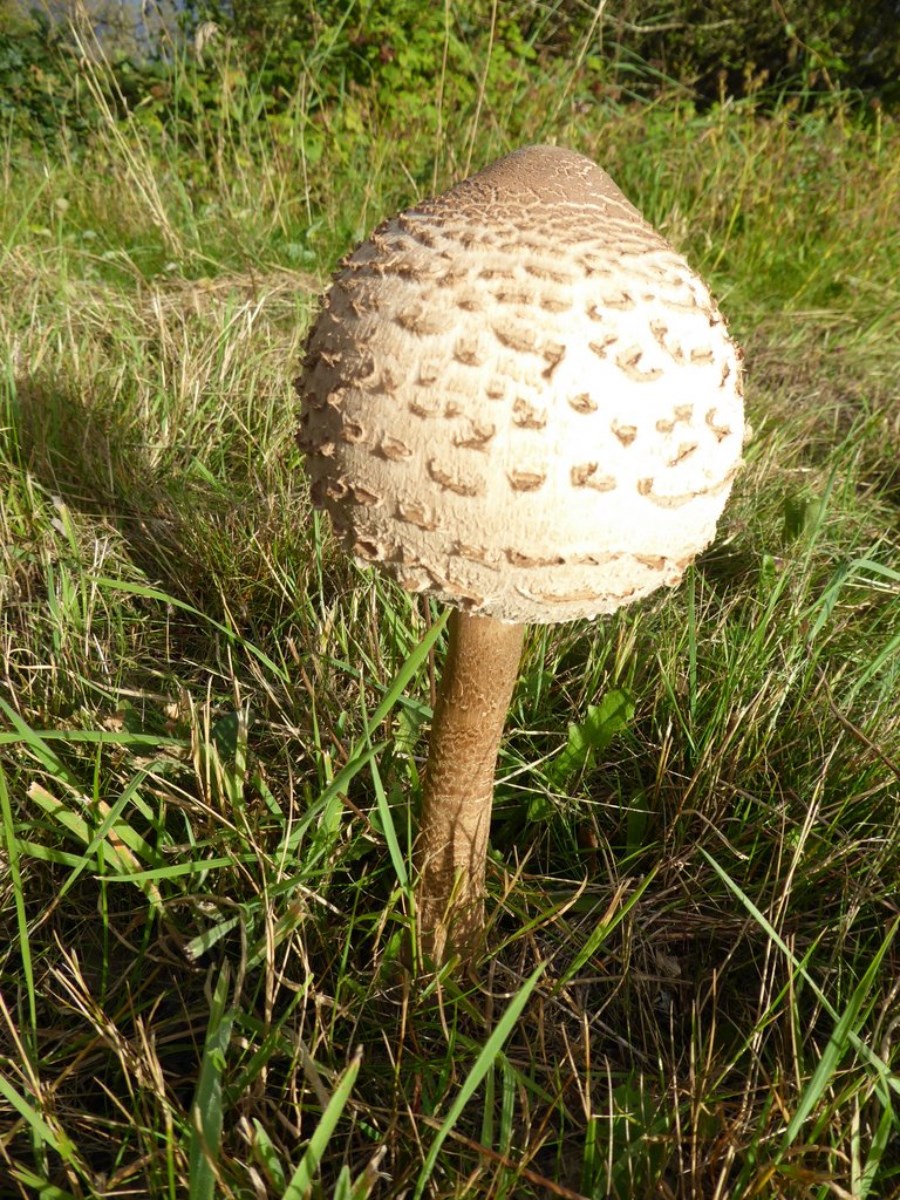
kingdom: Fungi
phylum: Basidiomycota
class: Agaricomycetes
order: Agaricales
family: Agaricaceae
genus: Macrolepiota
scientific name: Macrolepiota procera
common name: stor kæmpeparasolhat
